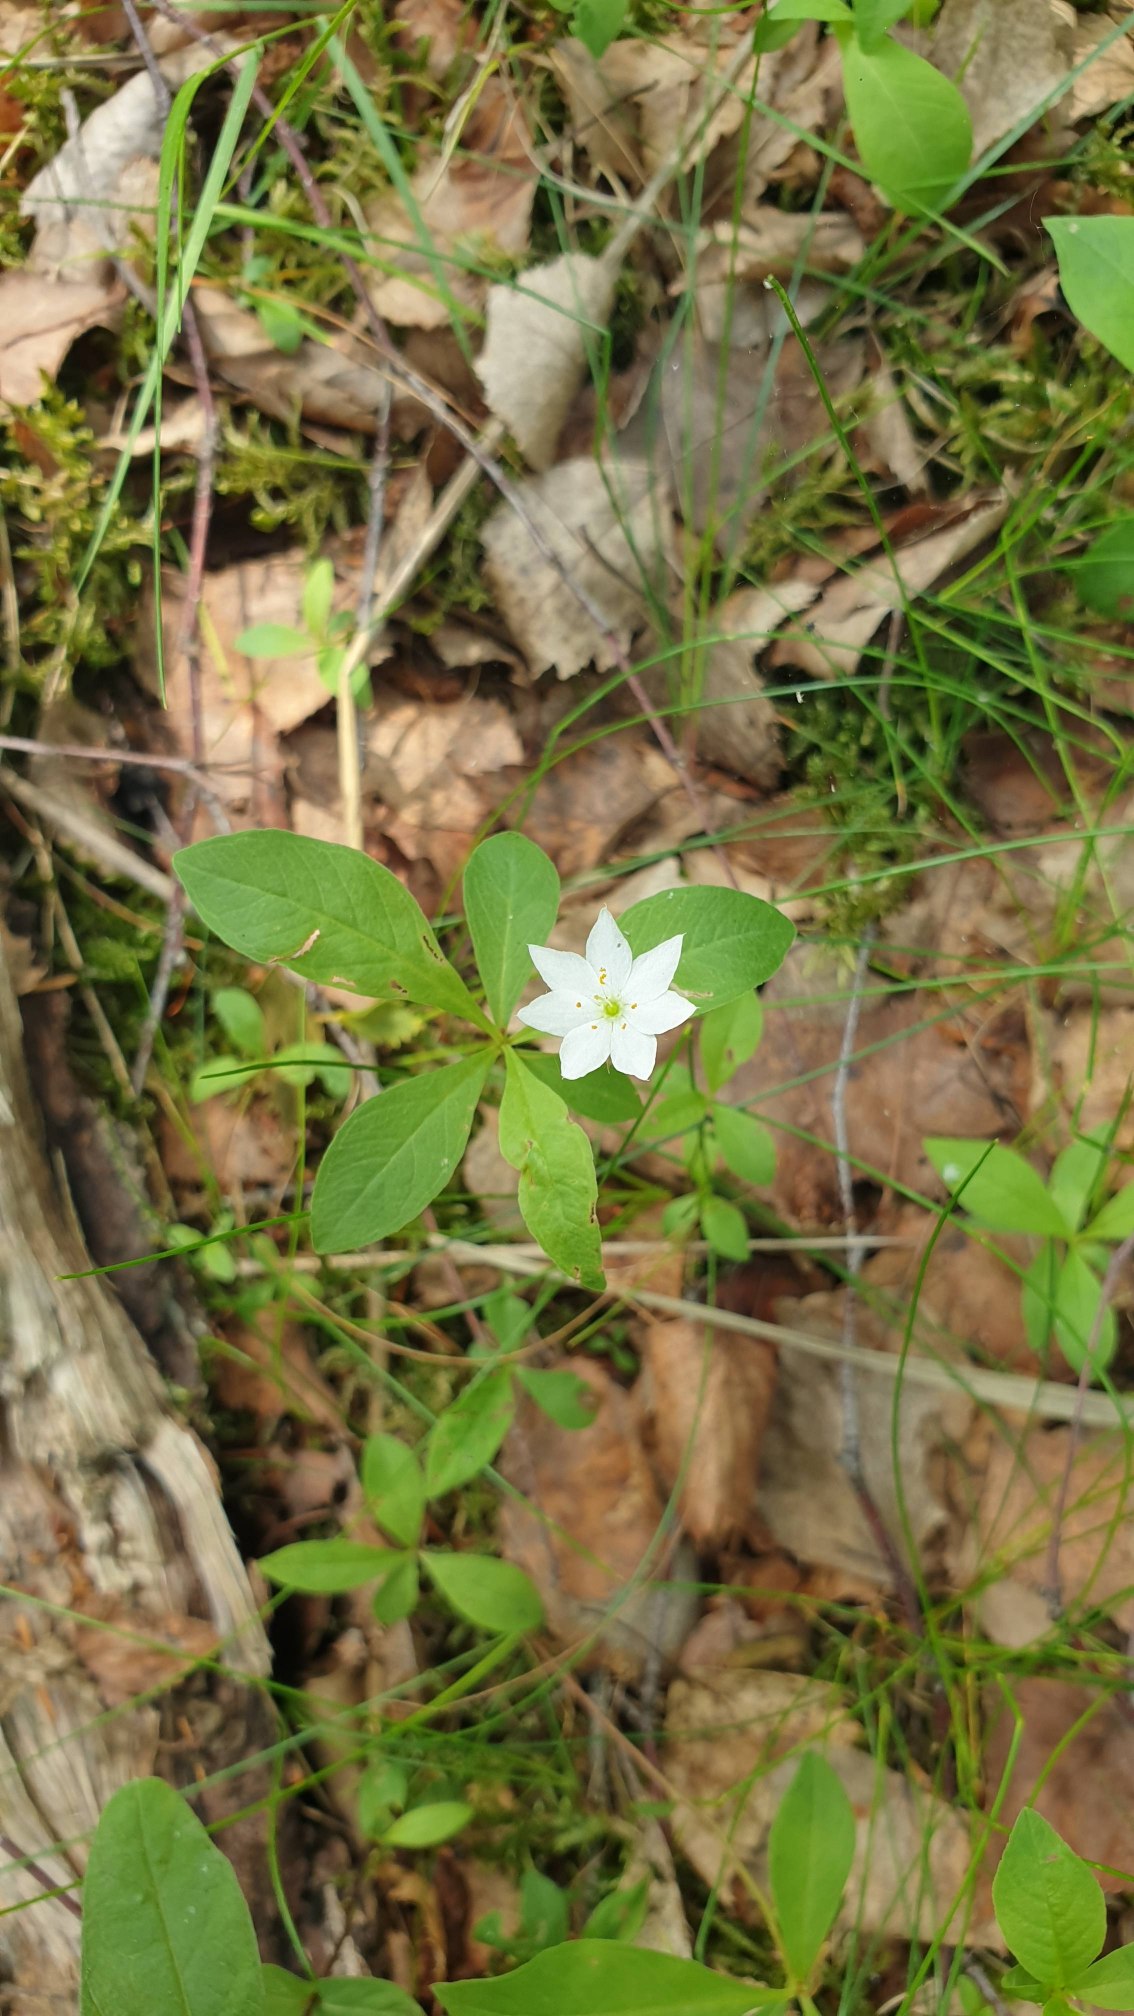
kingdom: Plantae
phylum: Tracheophyta
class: Magnoliopsida
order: Ericales
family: Primulaceae
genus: Lysimachia
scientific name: Lysimachia europaea
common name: Skovstjerne
